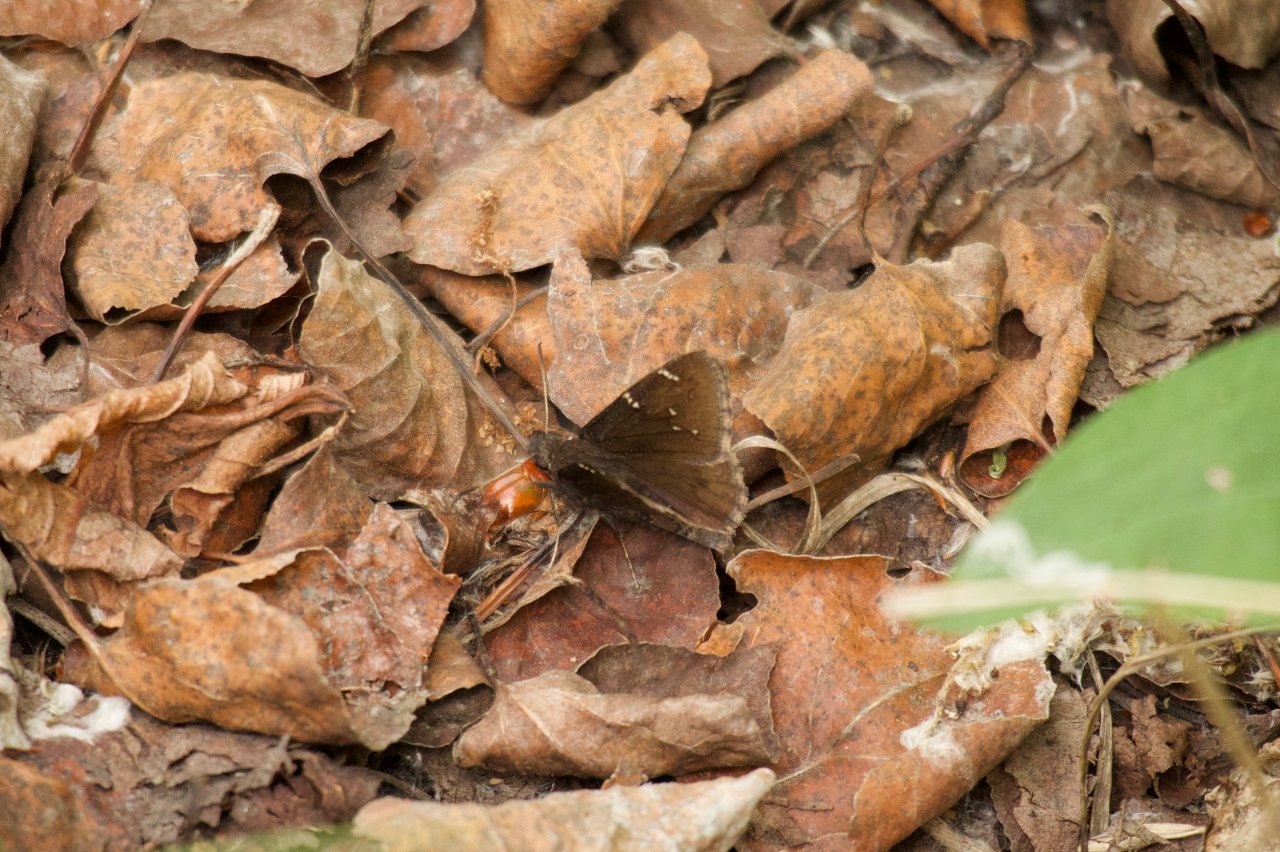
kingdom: Animalia
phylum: Arthropoda
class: Insecta
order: Lepidoptera
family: Hesperiidae
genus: Autochton
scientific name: Autochton
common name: Northern Cloudywing
